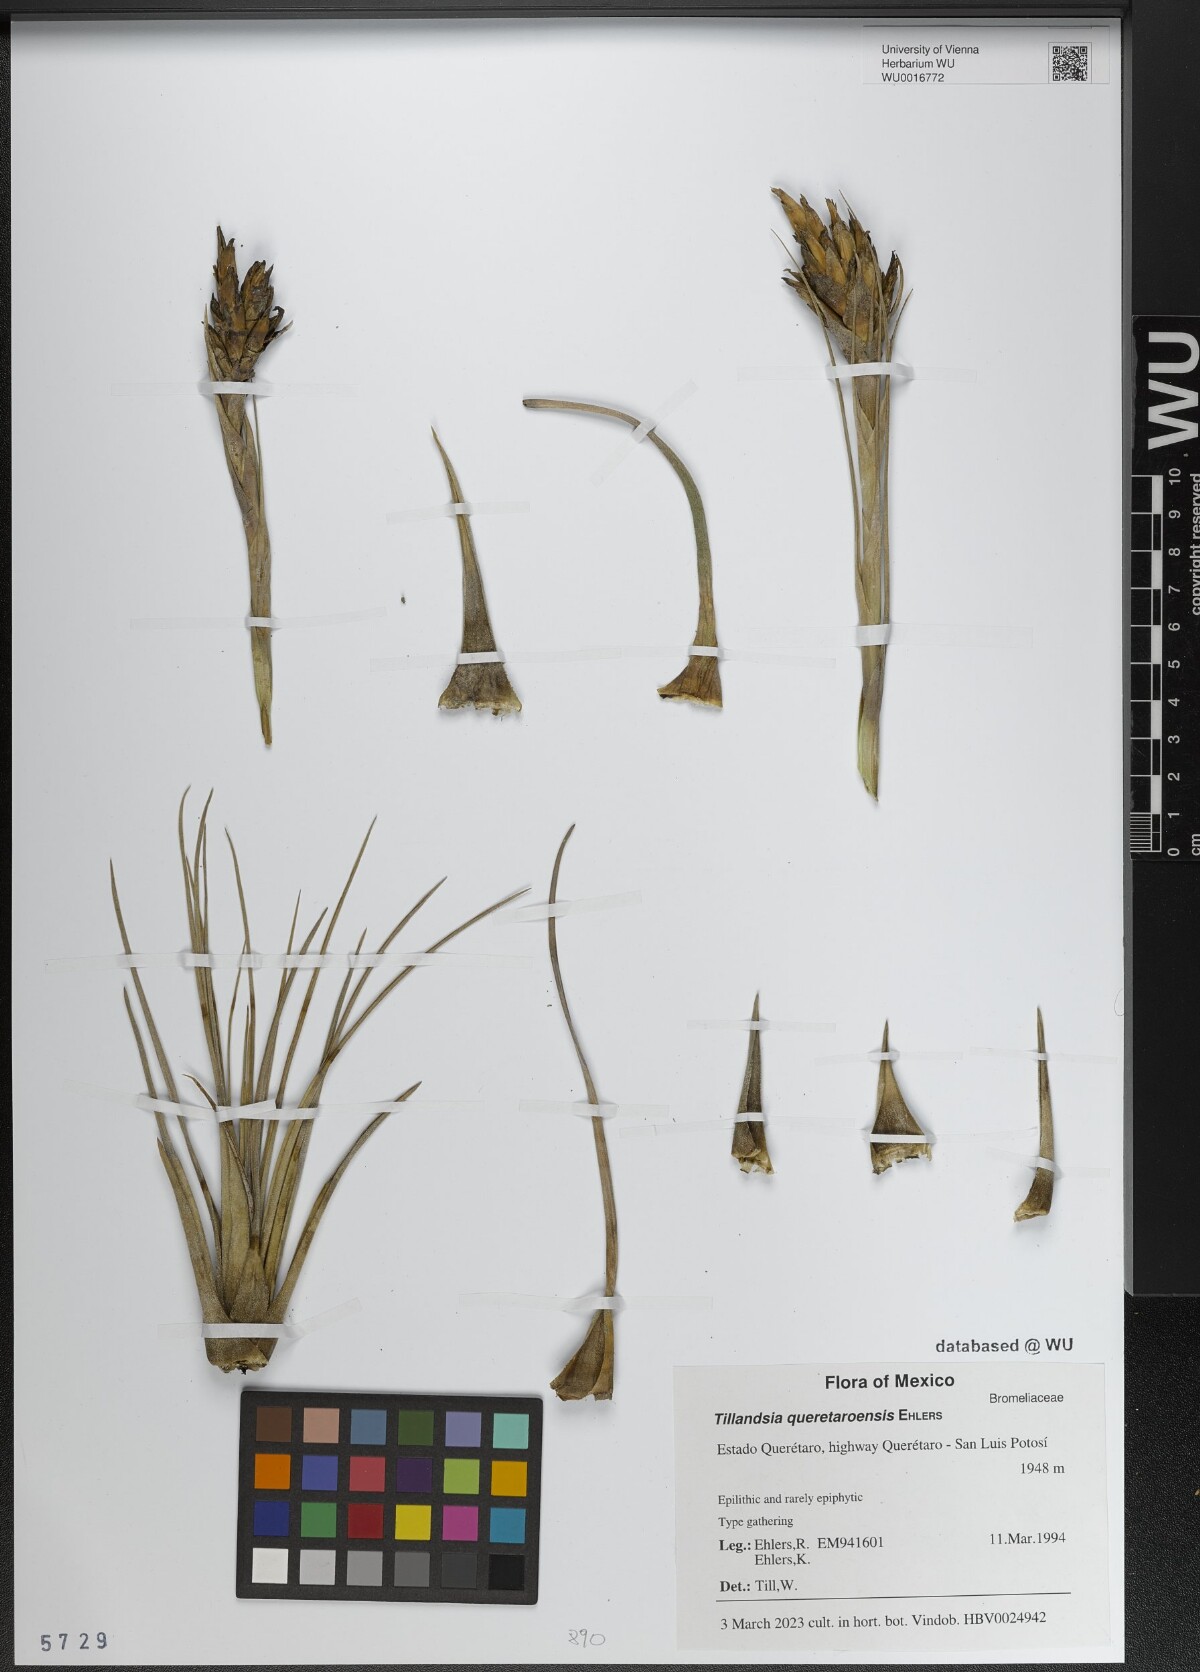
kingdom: Plantae
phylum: Tracheophyta
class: Liliopsida
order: Poales
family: Bromeliaceae
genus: Tillandsia
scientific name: Tillandsia queretaroensis
